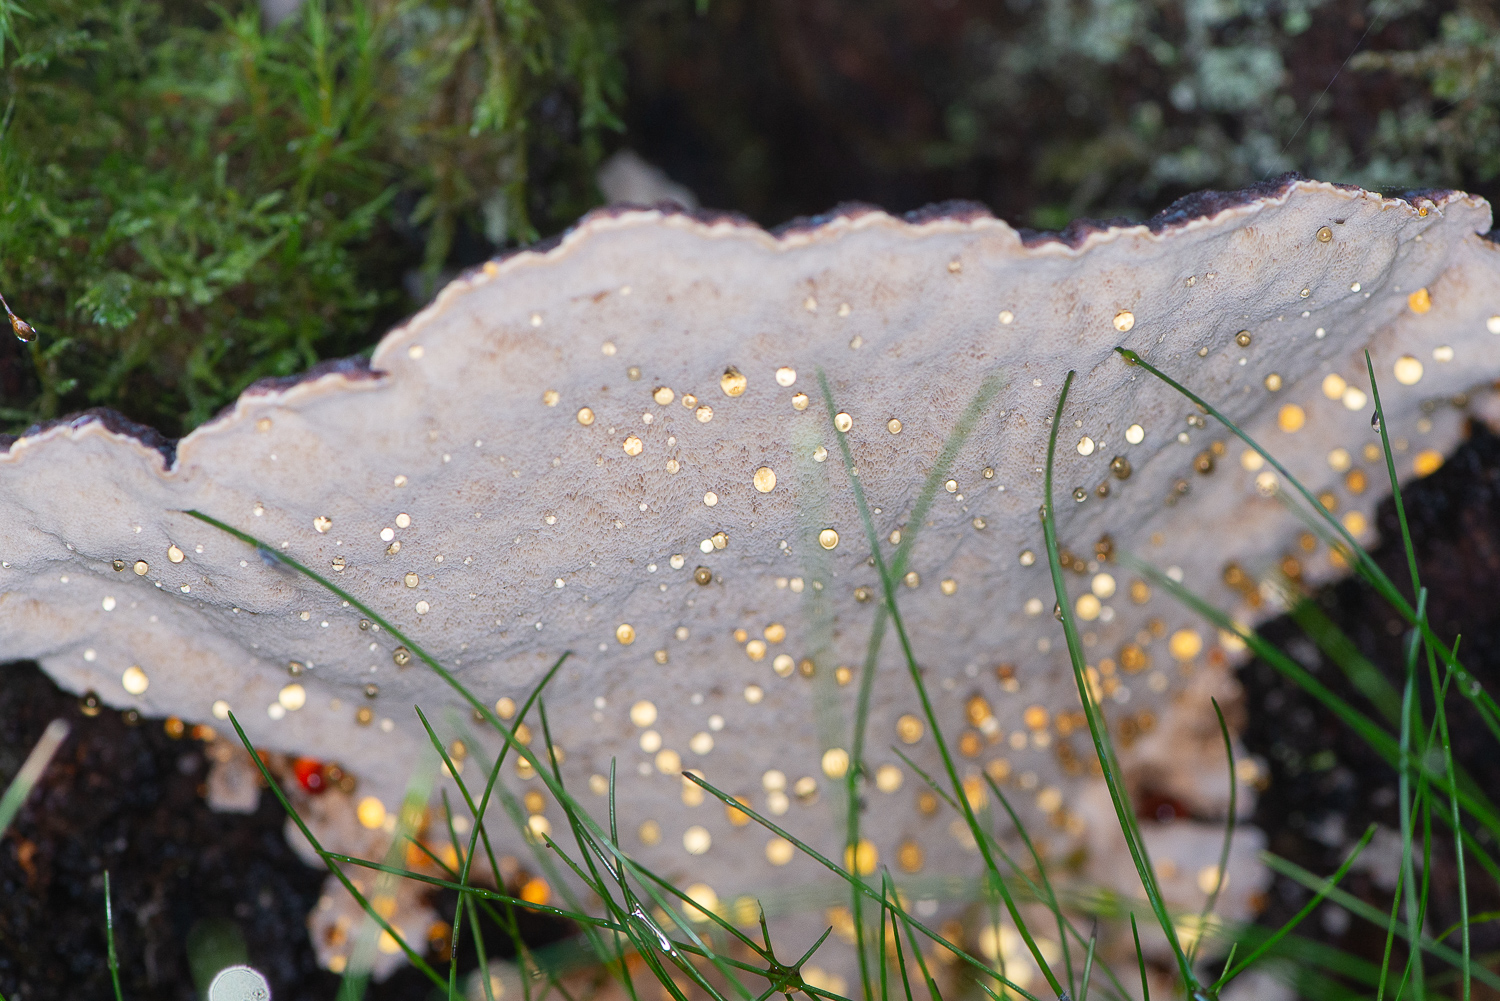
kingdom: Fungi
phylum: Basidiomycota
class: Agaricomycetes
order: Polyporales
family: Ischnodermataceae
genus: Ischnoderma
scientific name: Ischnoderma benzoinum
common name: gran-tjæreporesvamp
